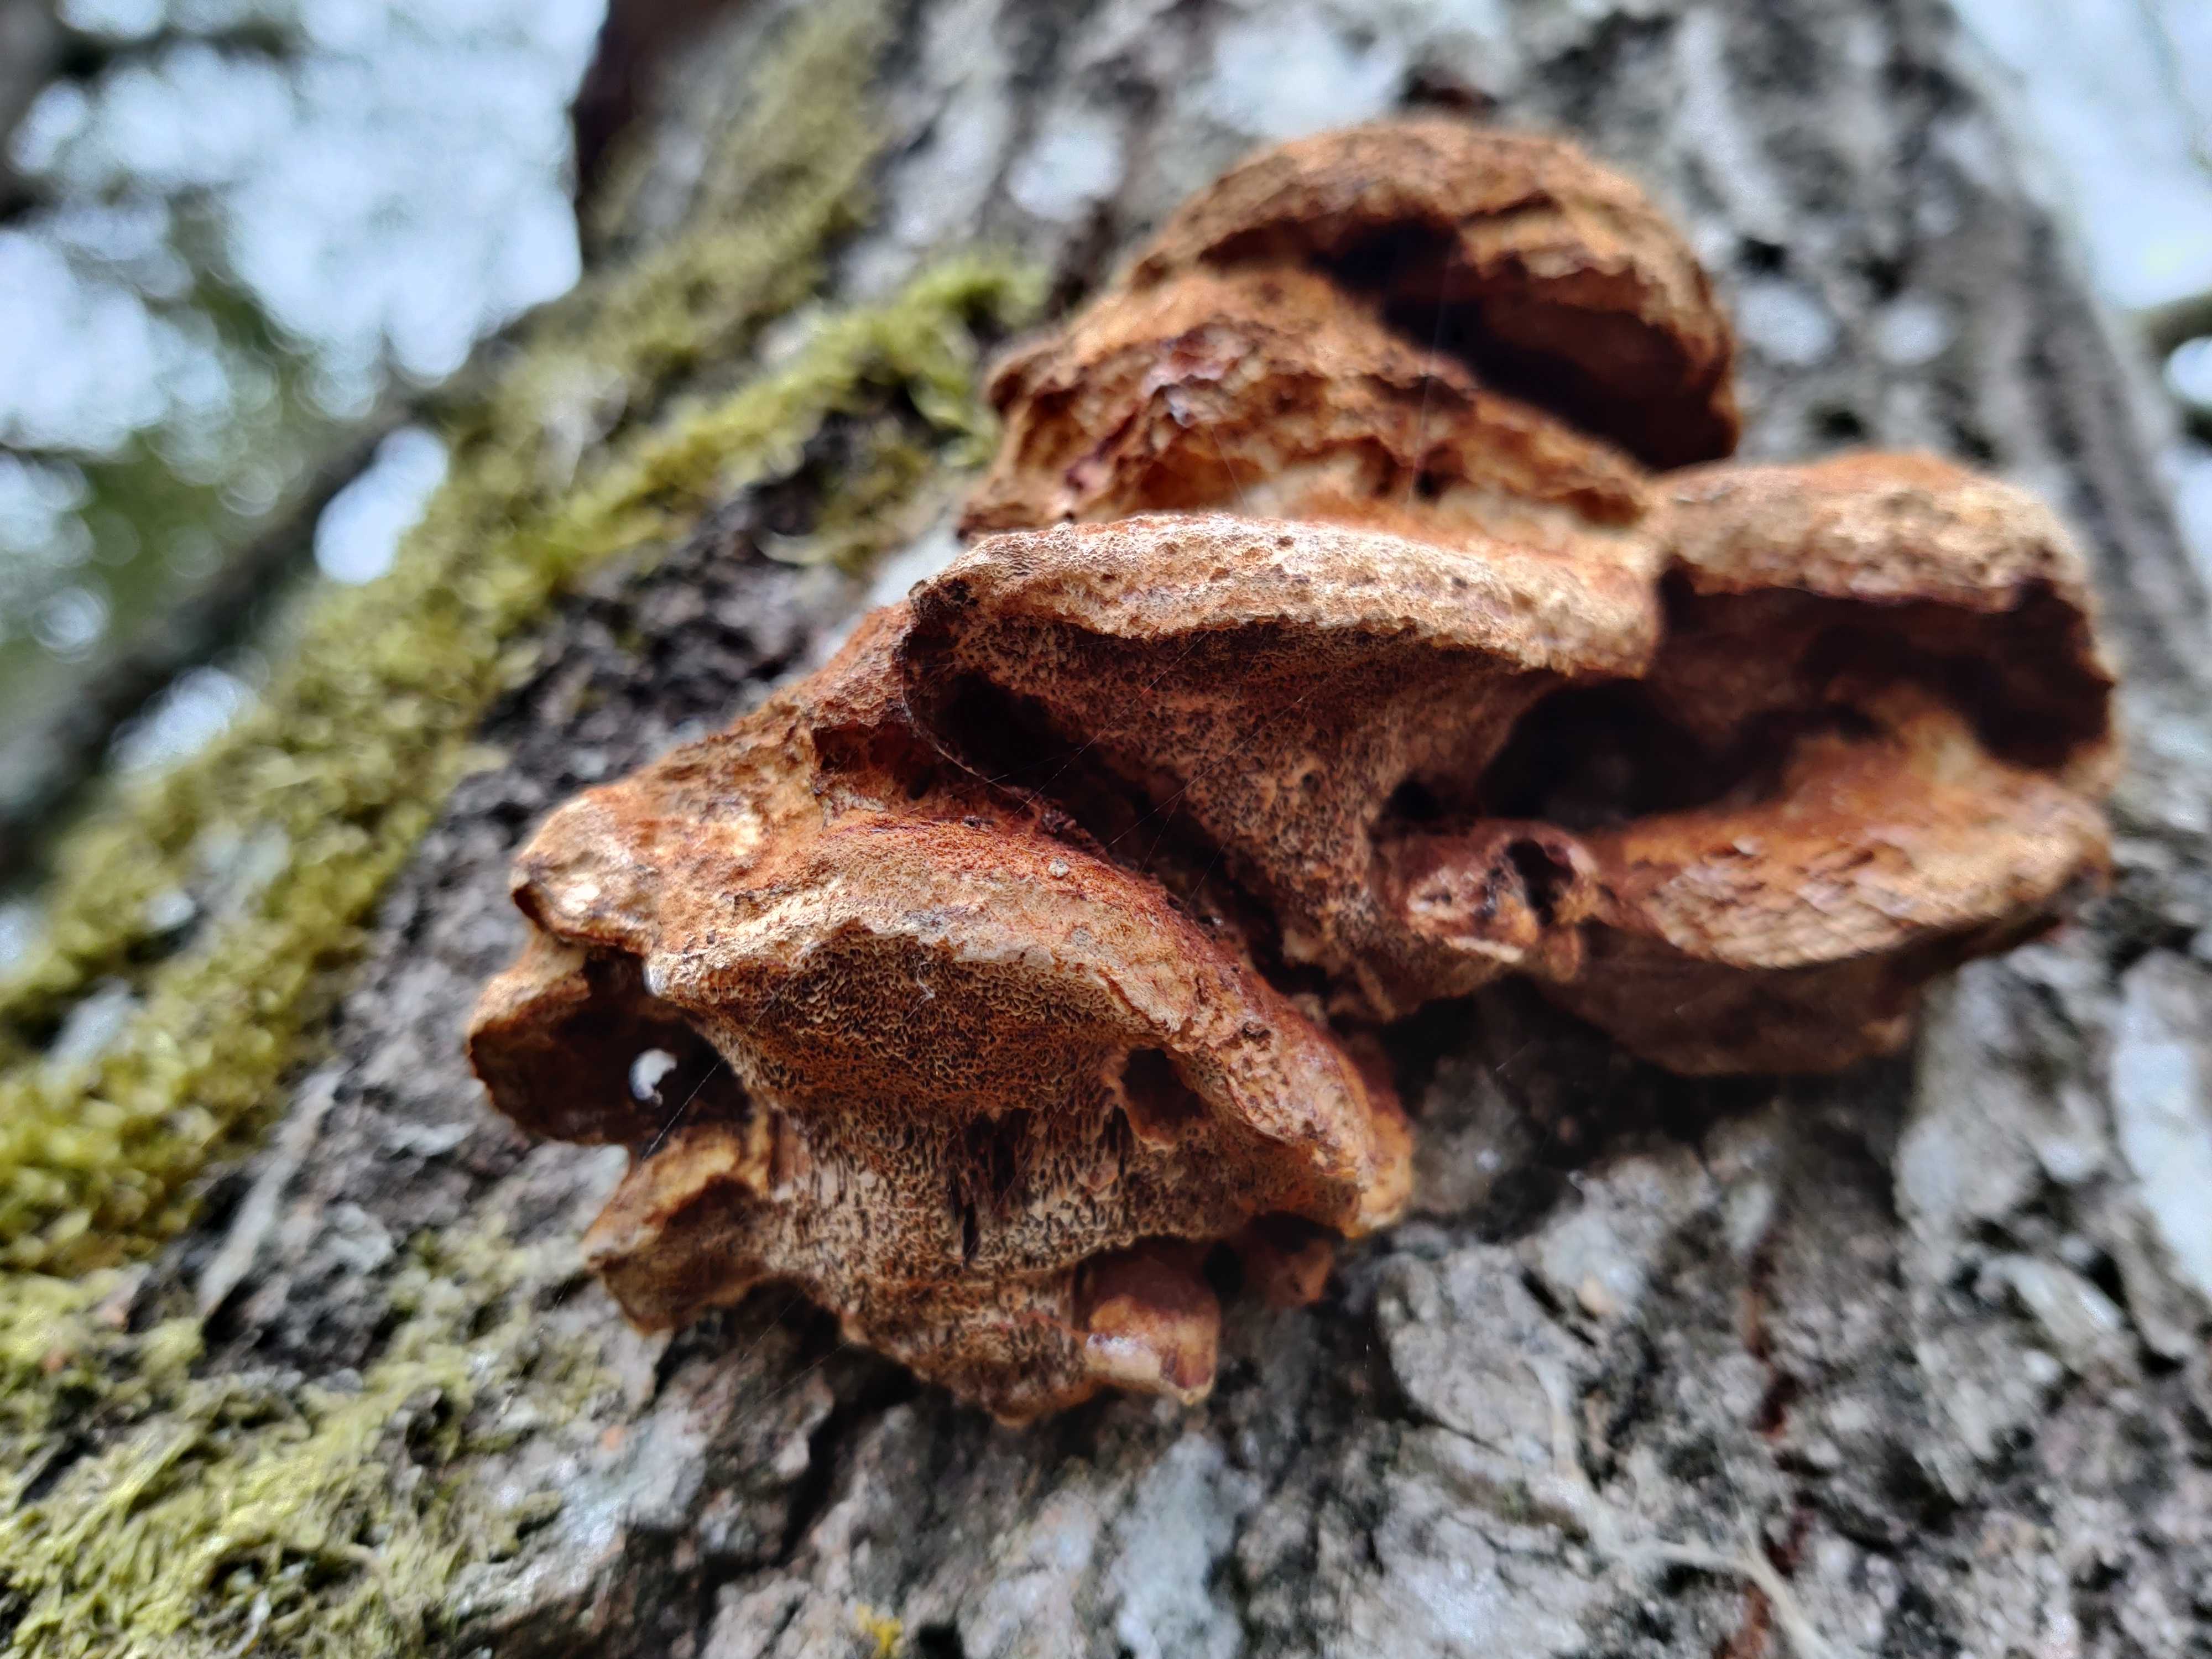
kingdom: Fungi
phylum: Basidiomycota
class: Agaricomycetes
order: Hymenochaetales
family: Hymenochaetaceae
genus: Inocutis
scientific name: Inocutis rheades
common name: ræve-spejlporesvamp
